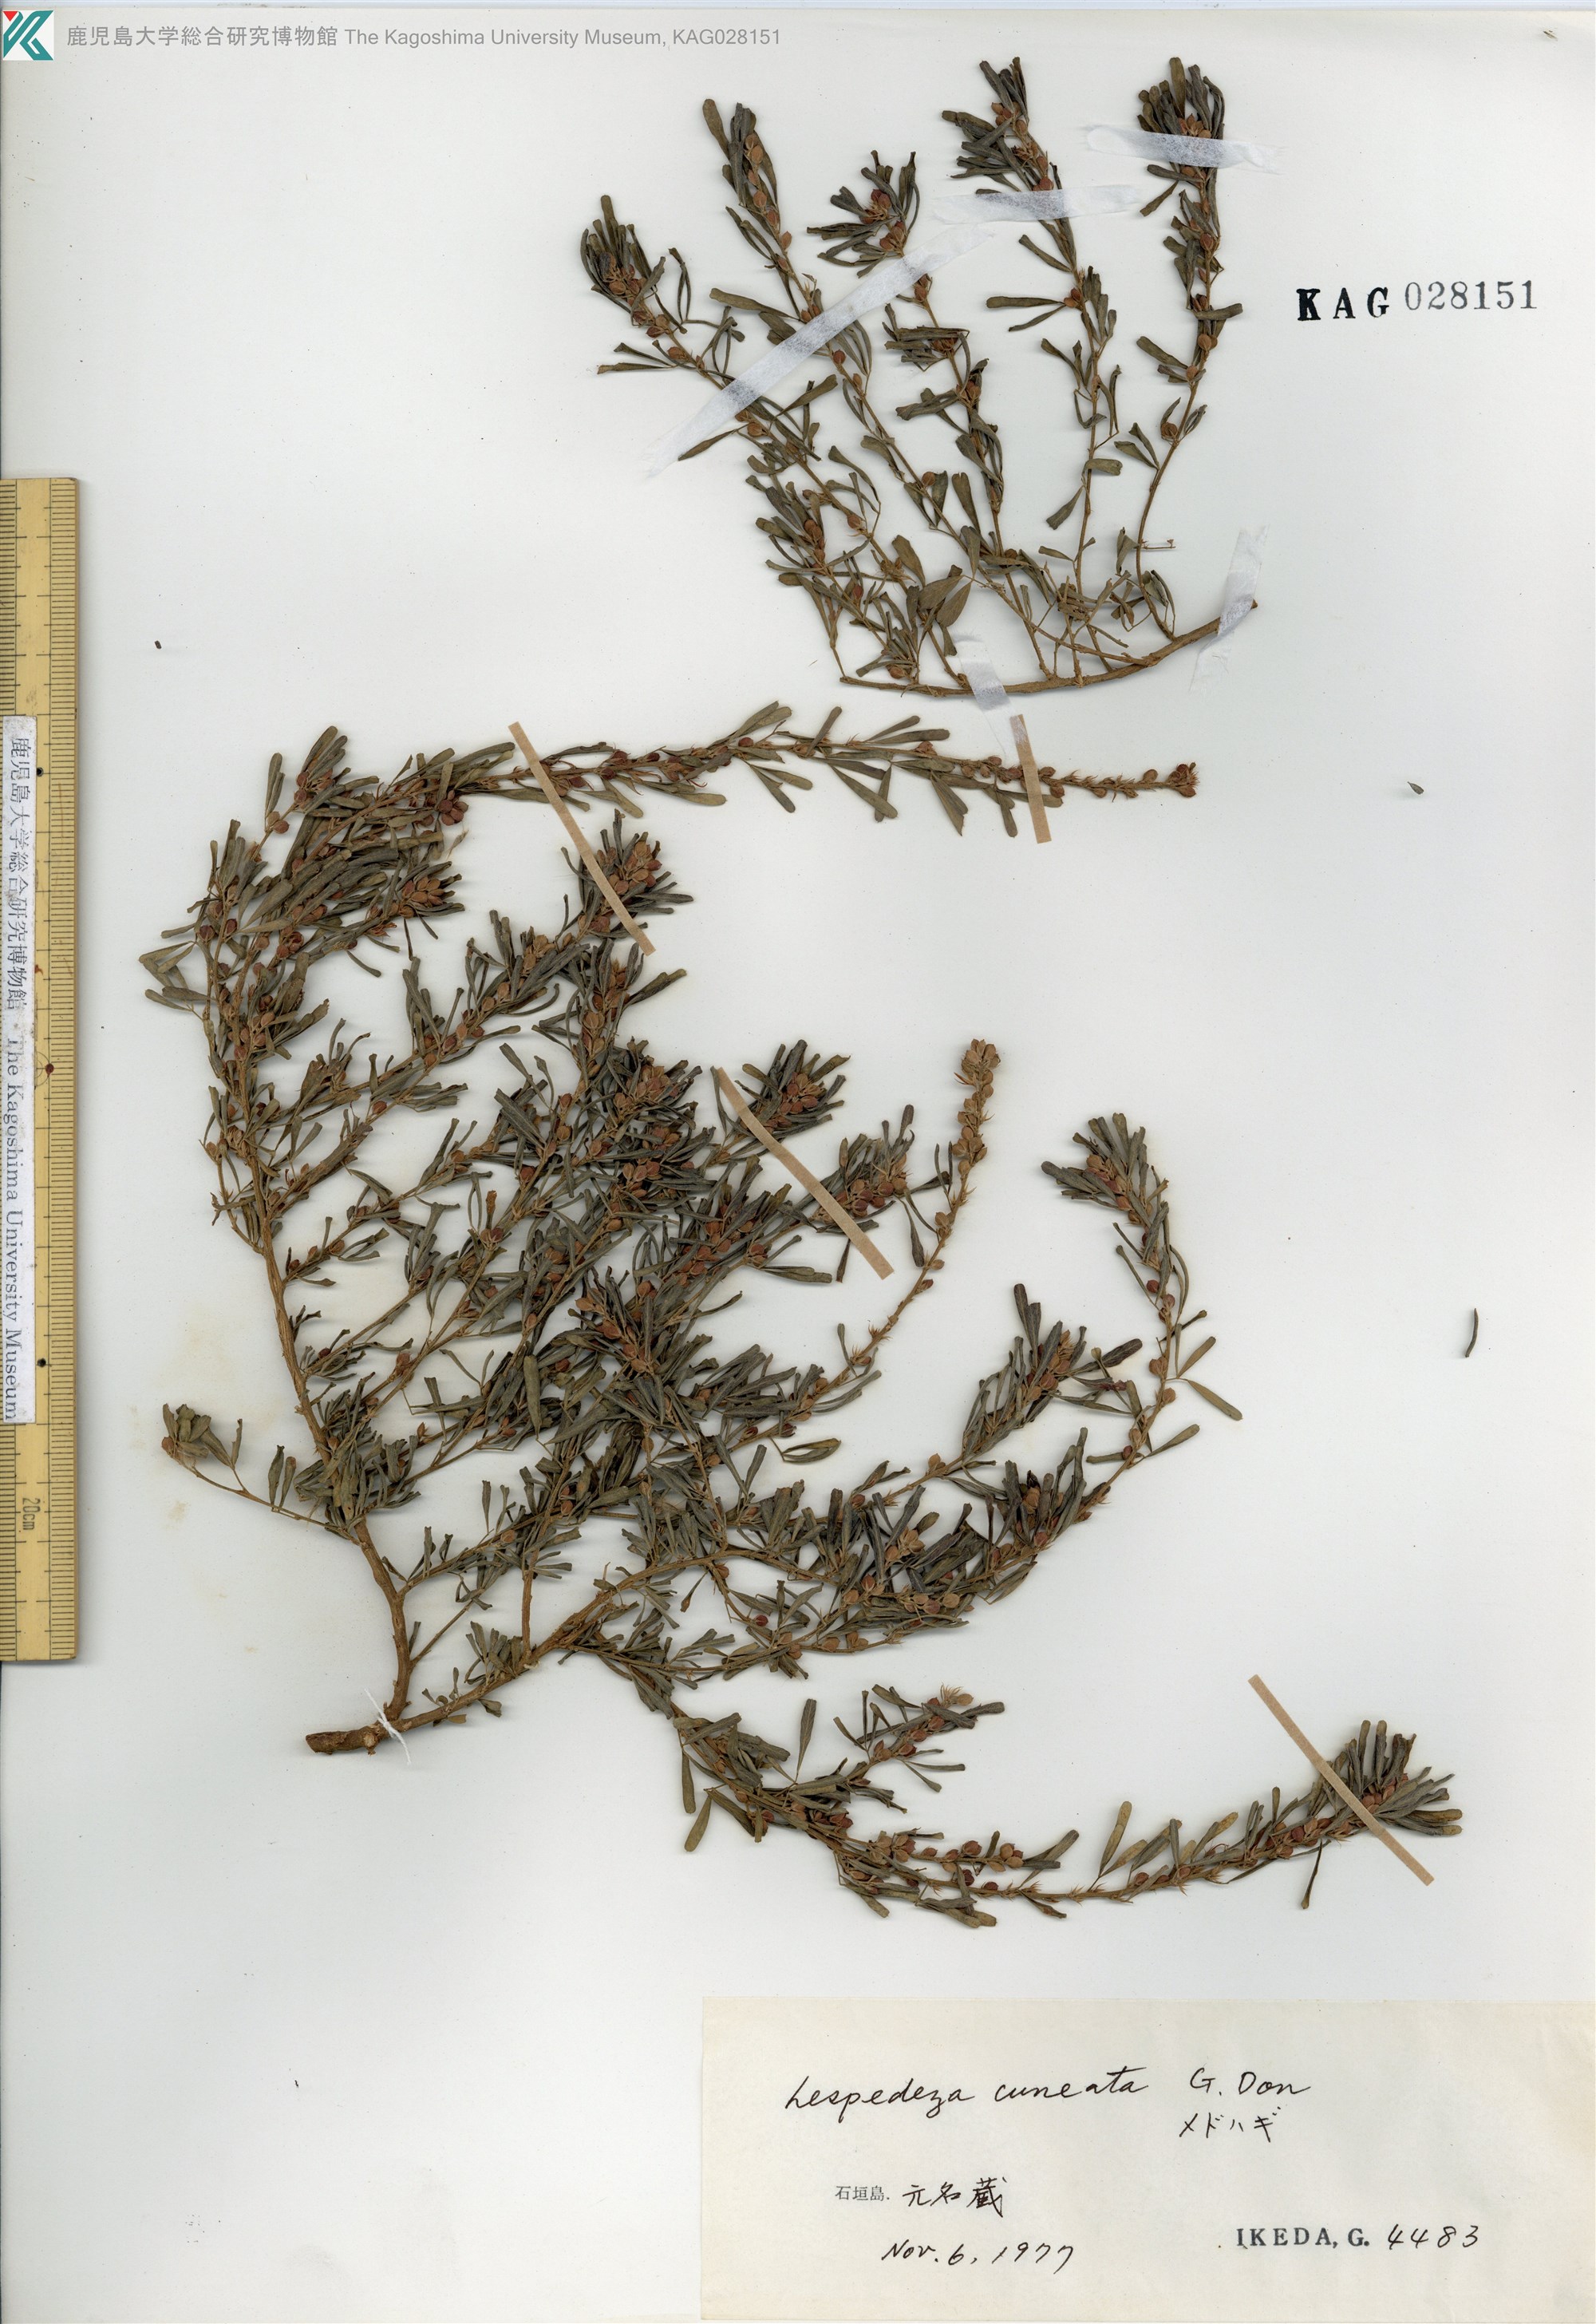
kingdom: Plantae
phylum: Tracheophyta
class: Magnoliopsida
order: Fabales
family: Fabaceae
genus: Lespedeza
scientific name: Lespedeza cuneata
